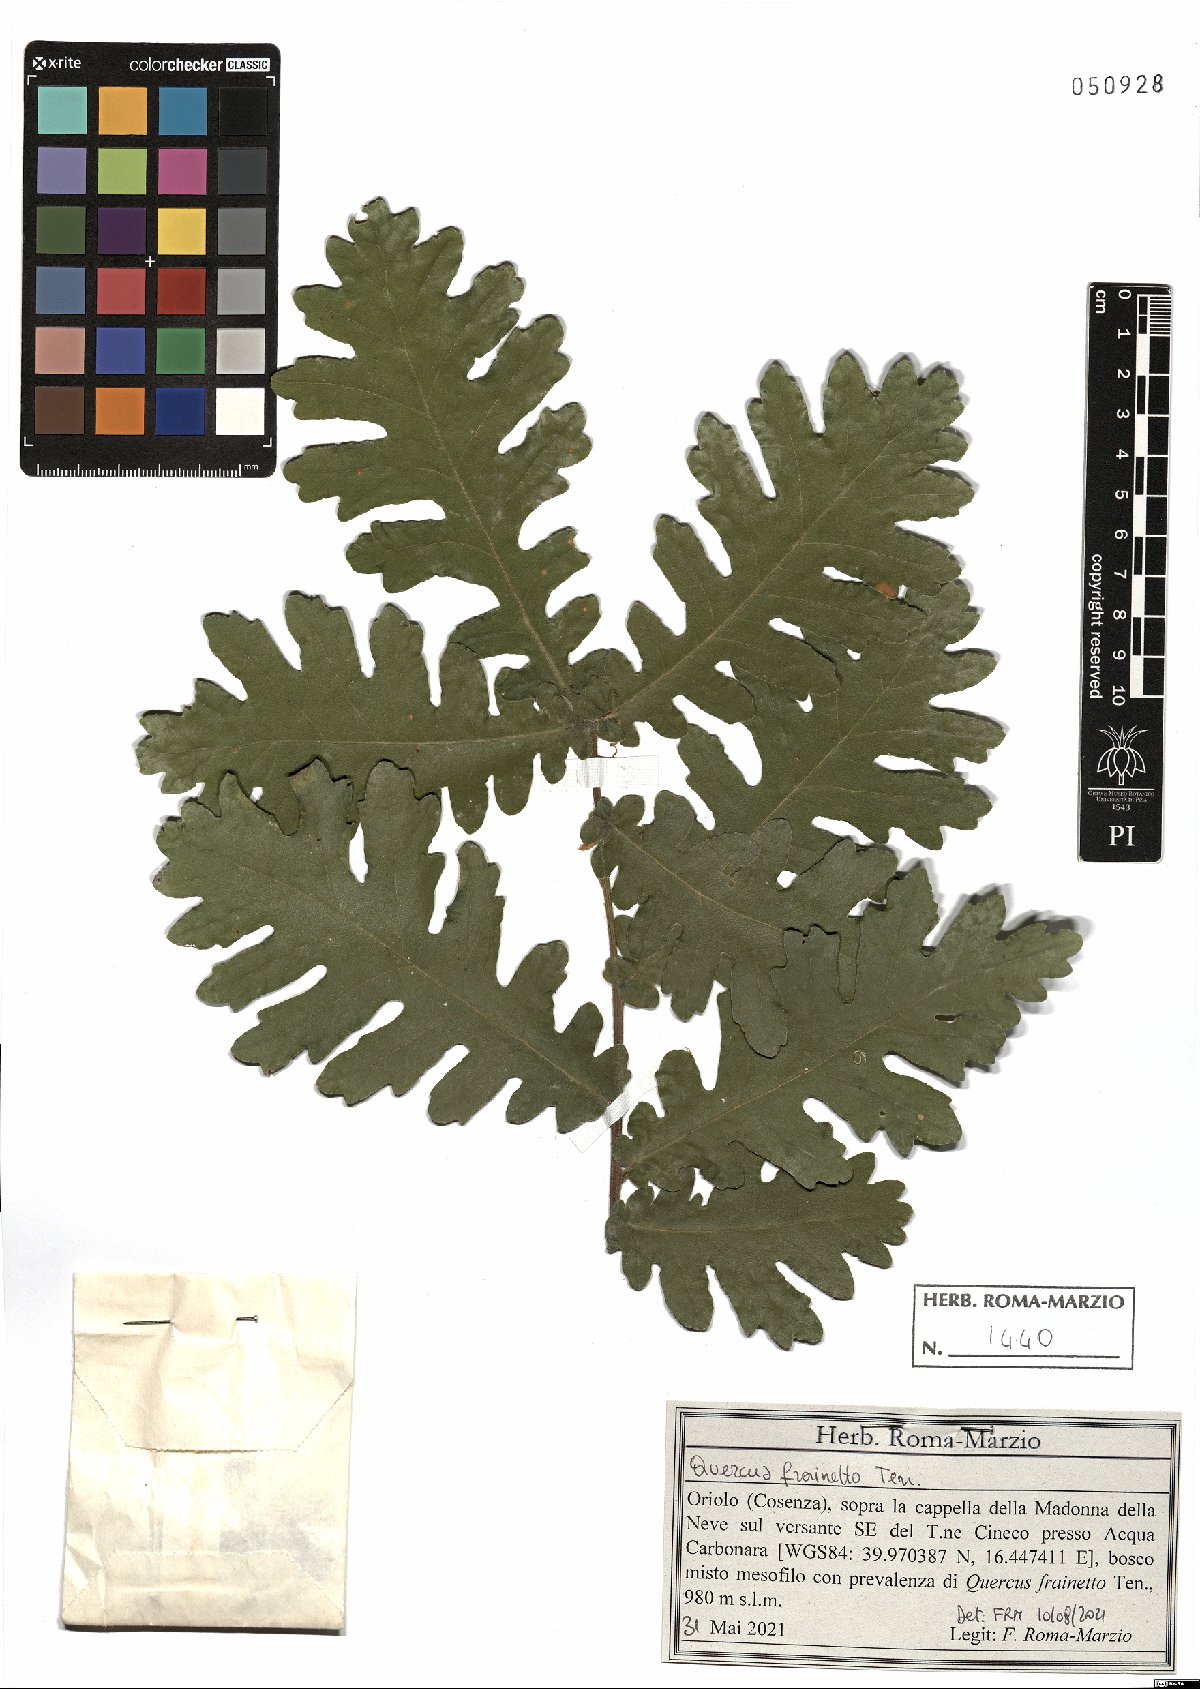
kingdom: Plantae
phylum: Tracheophyta
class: Magnoliopsida
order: Fagales
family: Fagaceae
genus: Quercus
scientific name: Quercus conferta
